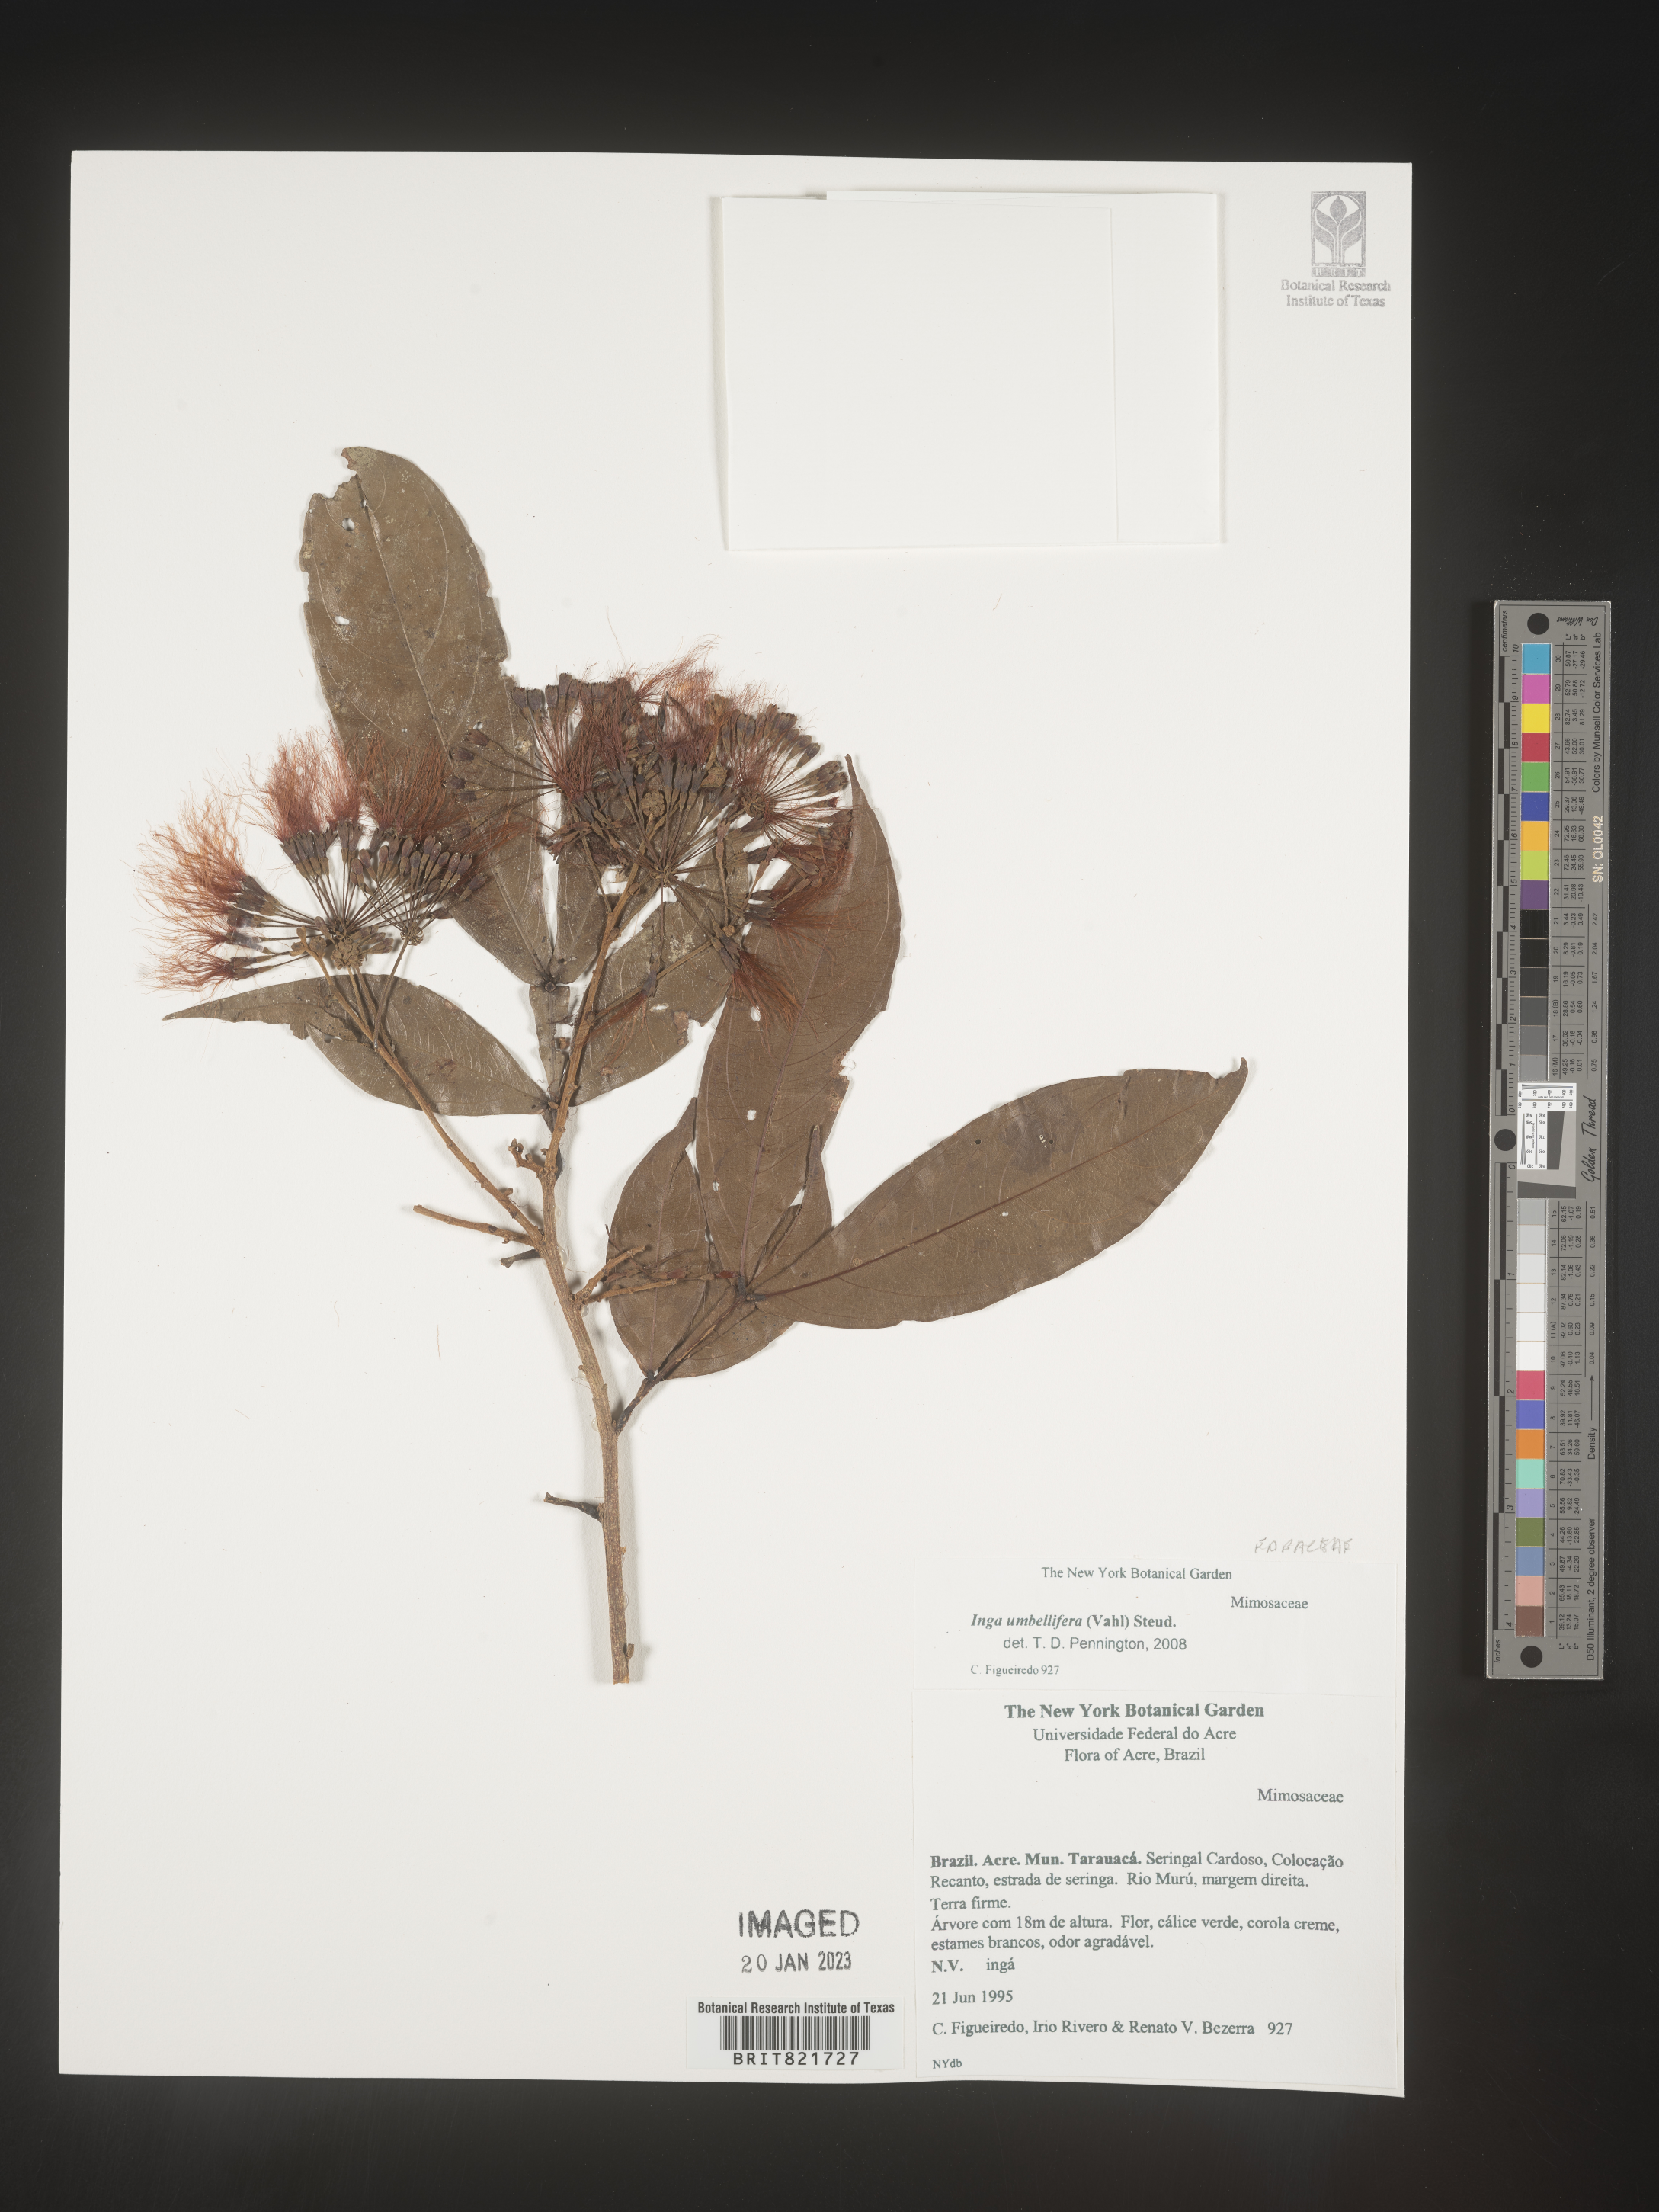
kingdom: Plantae
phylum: Tracheophyta
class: Magnoliopsida
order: Fabales
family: Fabaceae
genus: Inga
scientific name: Inga
